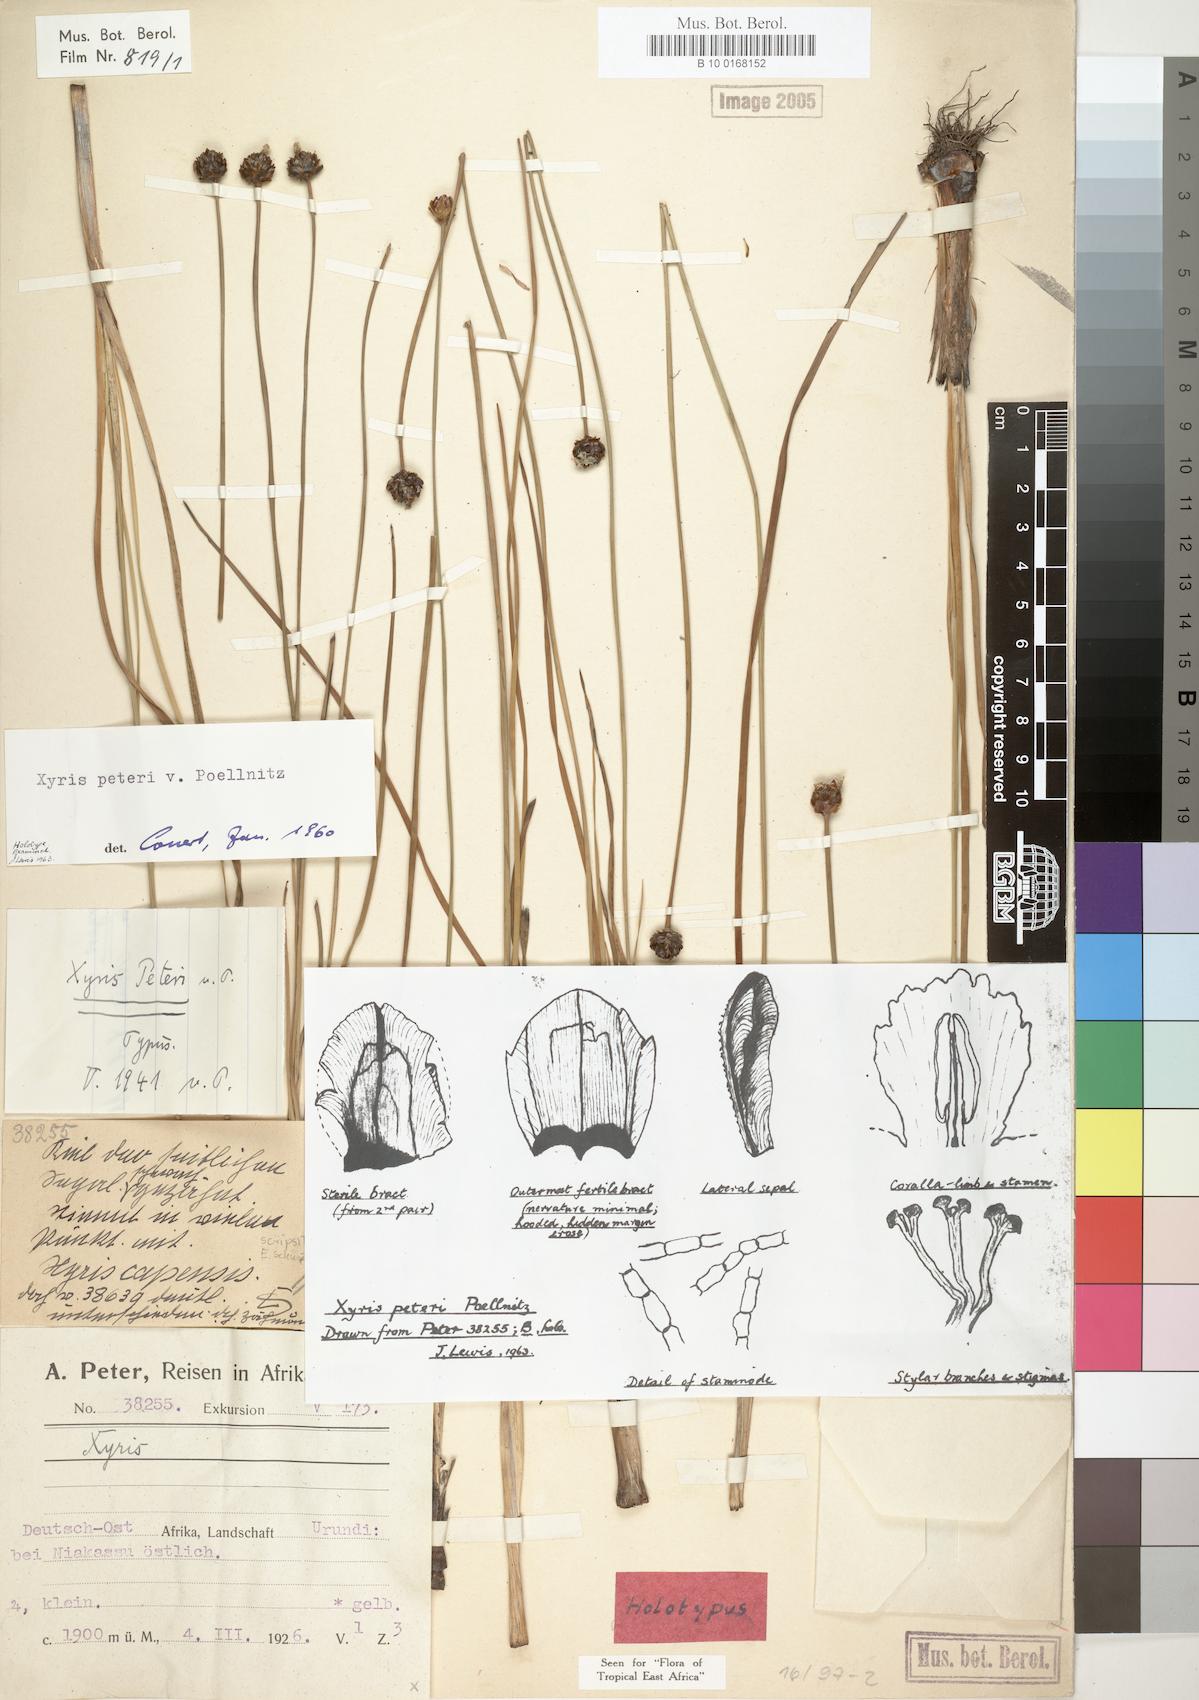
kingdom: Plantae
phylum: Tracheophyta
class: Liliopsida
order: Poales
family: Xyridaceae
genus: Xyris
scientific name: Xyris peteri
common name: Yelloweyed grass
